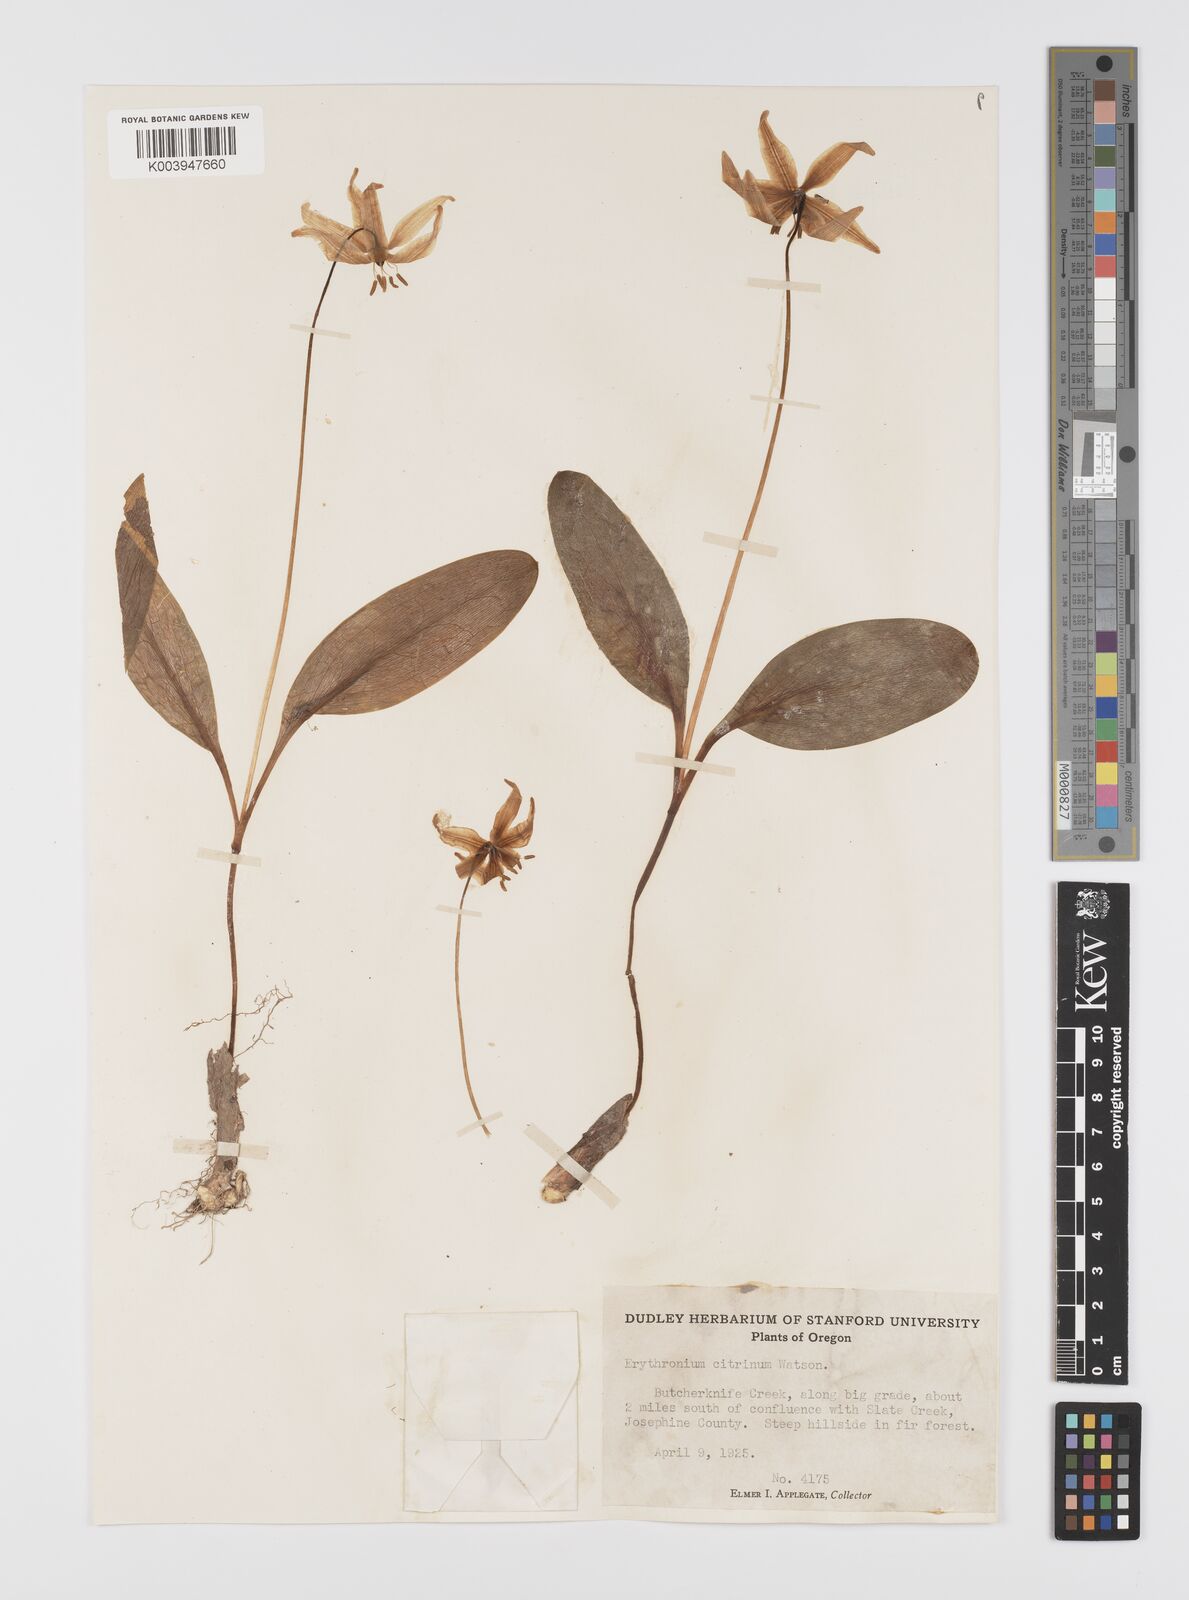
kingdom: Plantae
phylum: Tracheophyta
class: Liliopsida
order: Liliales
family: Liliaceae
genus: Erythronium
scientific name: Erythronium citrinum
